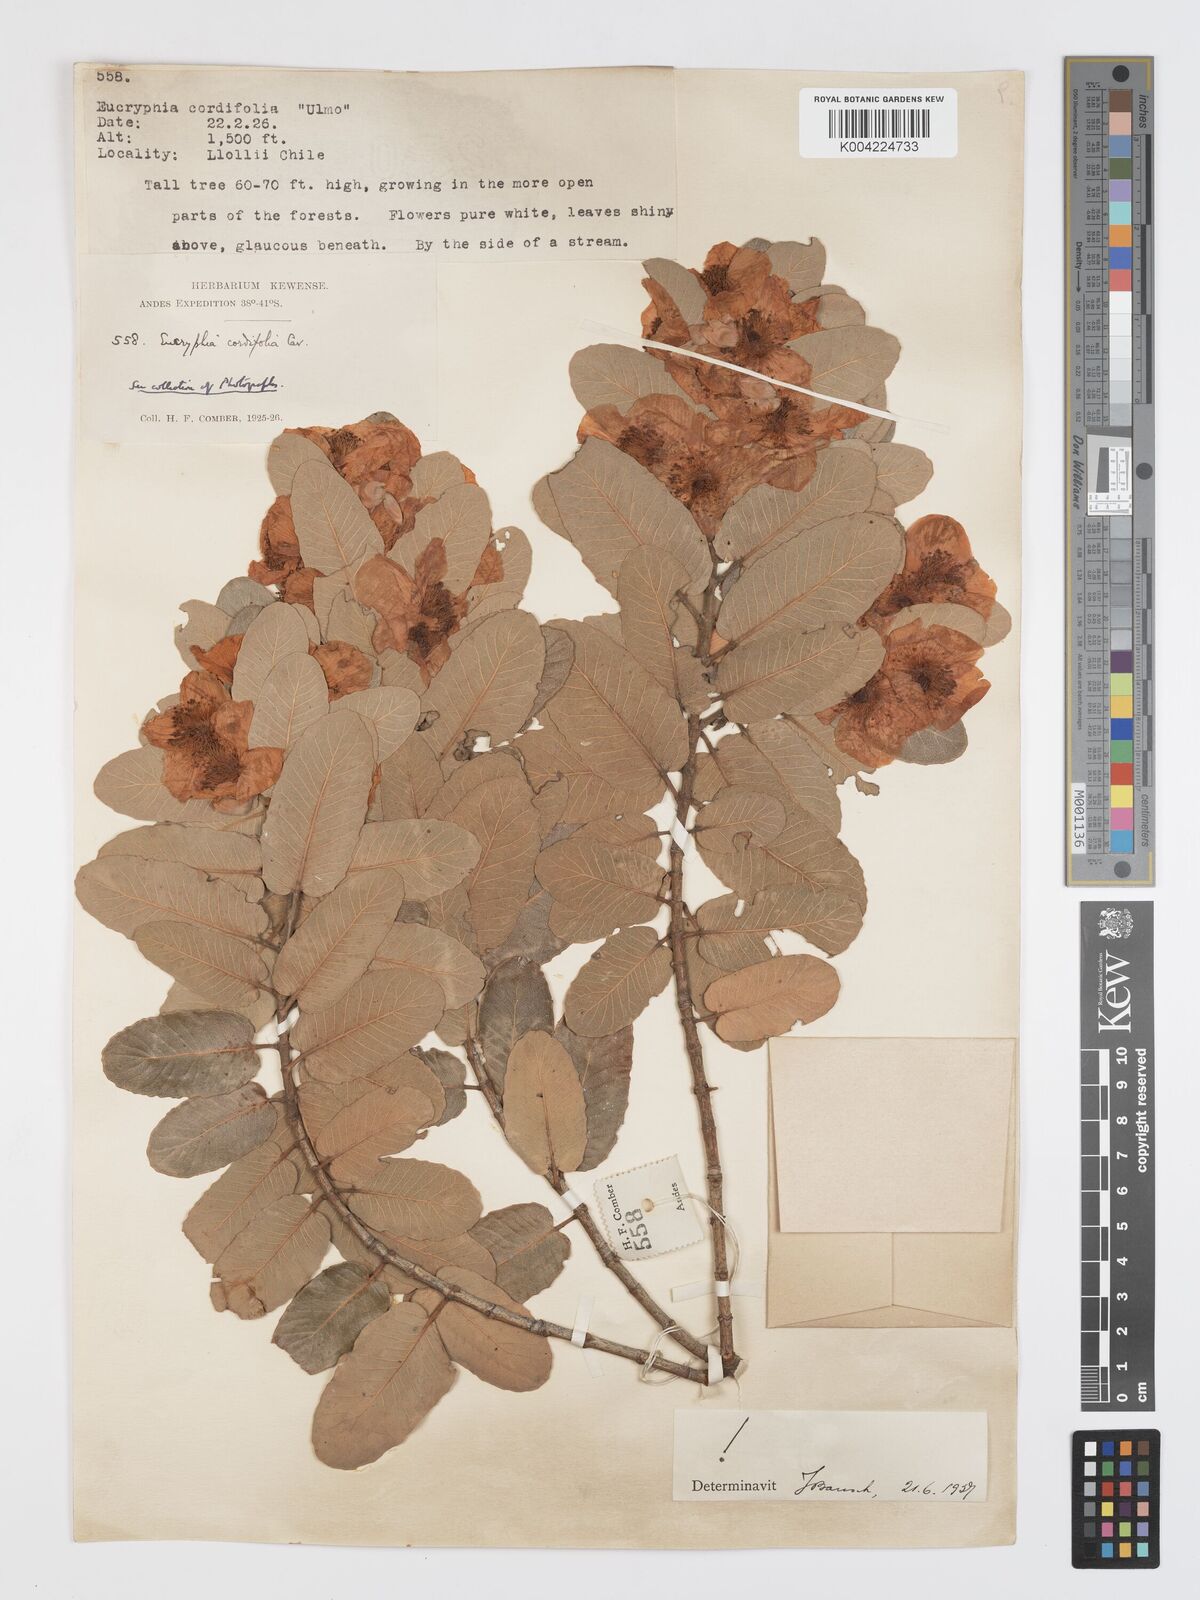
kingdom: Plantae
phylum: Tracheophyta
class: Magnoliopsida
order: Oxalidales
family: Cunoniaceae
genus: Eucryphia
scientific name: Eucryphia cordifolia
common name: Ulmo
